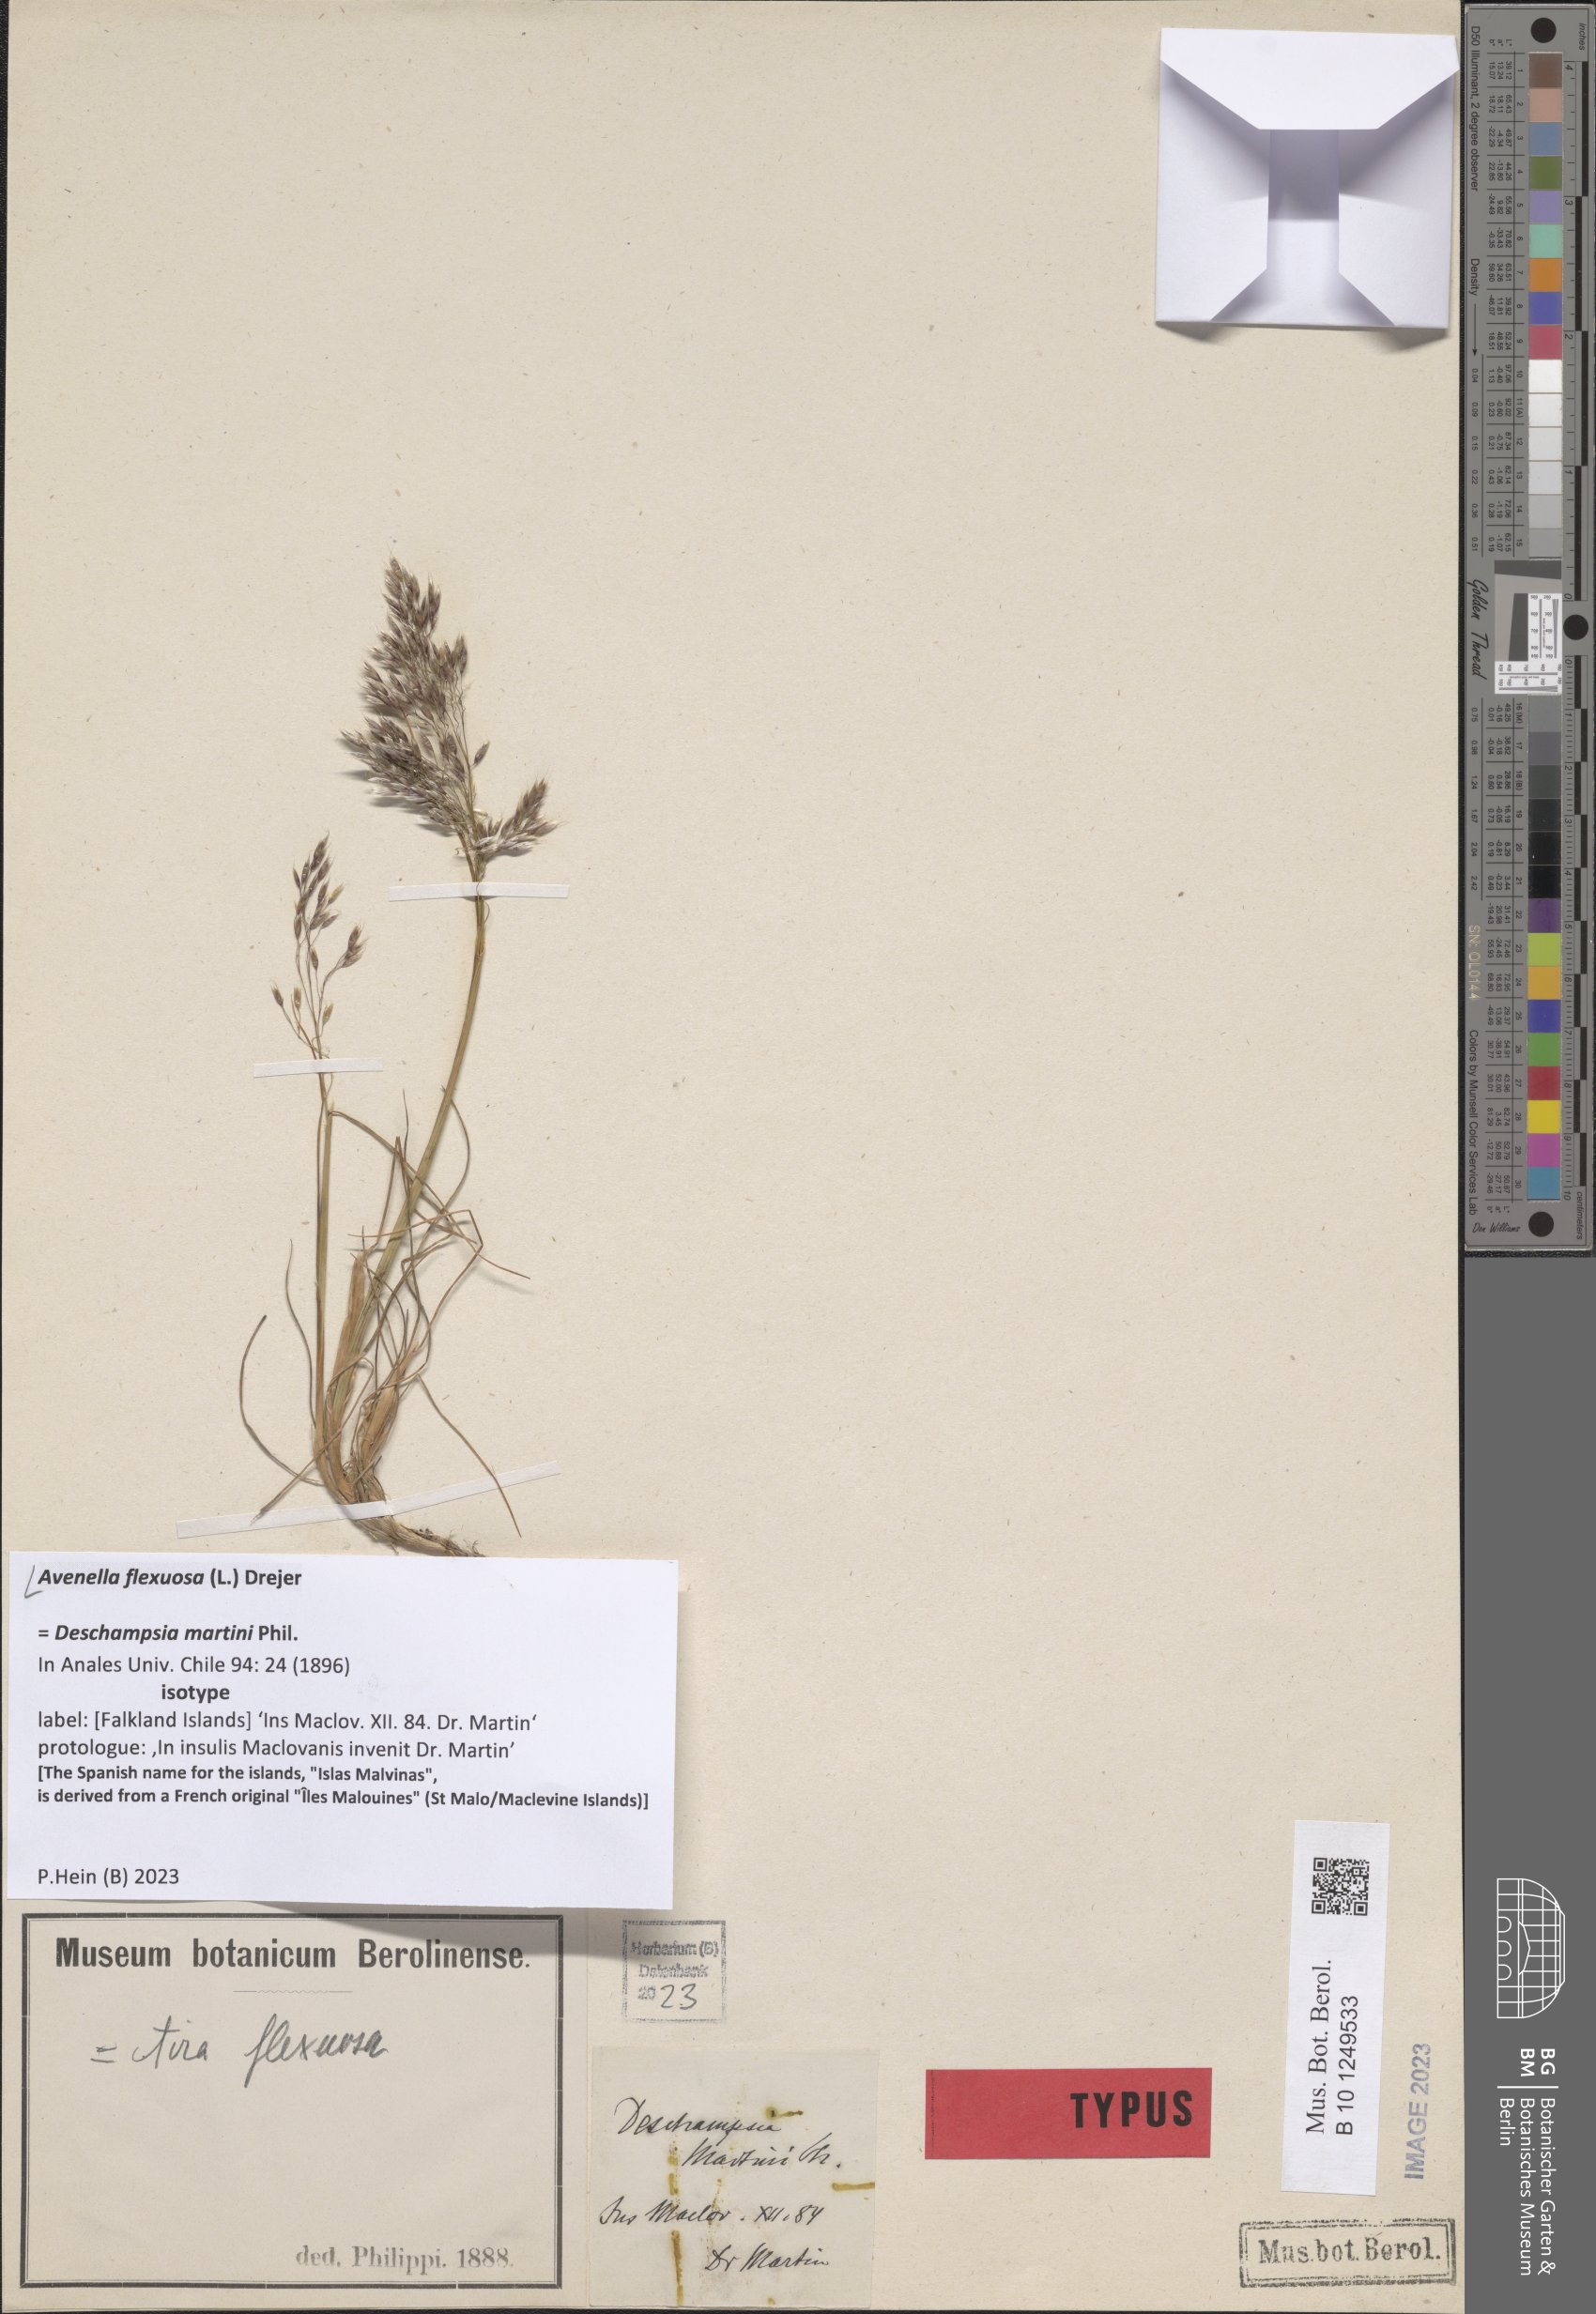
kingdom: Plantae
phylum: Tracheophyta
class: Liliopsida
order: Poales
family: Poaceae
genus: Avenella
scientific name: Avenella flexuosa
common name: Wavy hairgrass
